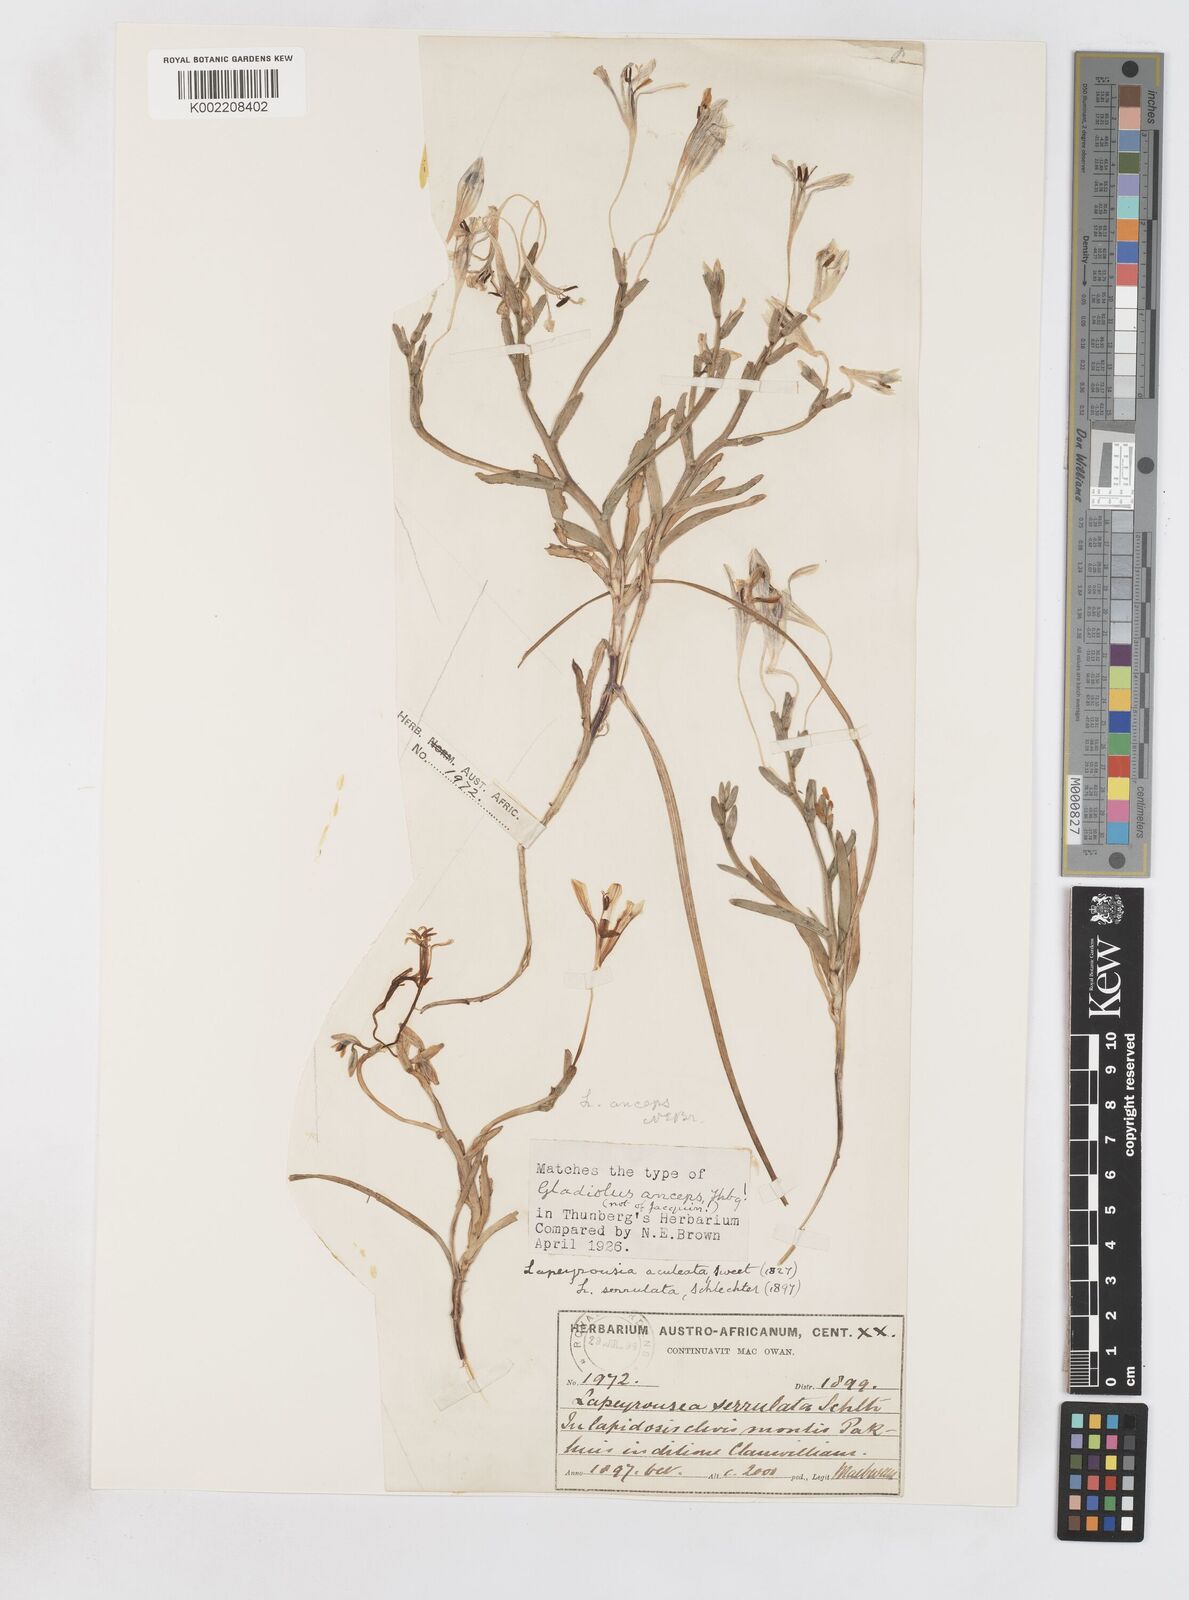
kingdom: Plantae
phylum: Tracheophyta
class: Liliopsida
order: Asparagales
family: Iridaceae
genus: Lapeirousia
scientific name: Lapeirousia fabricii
